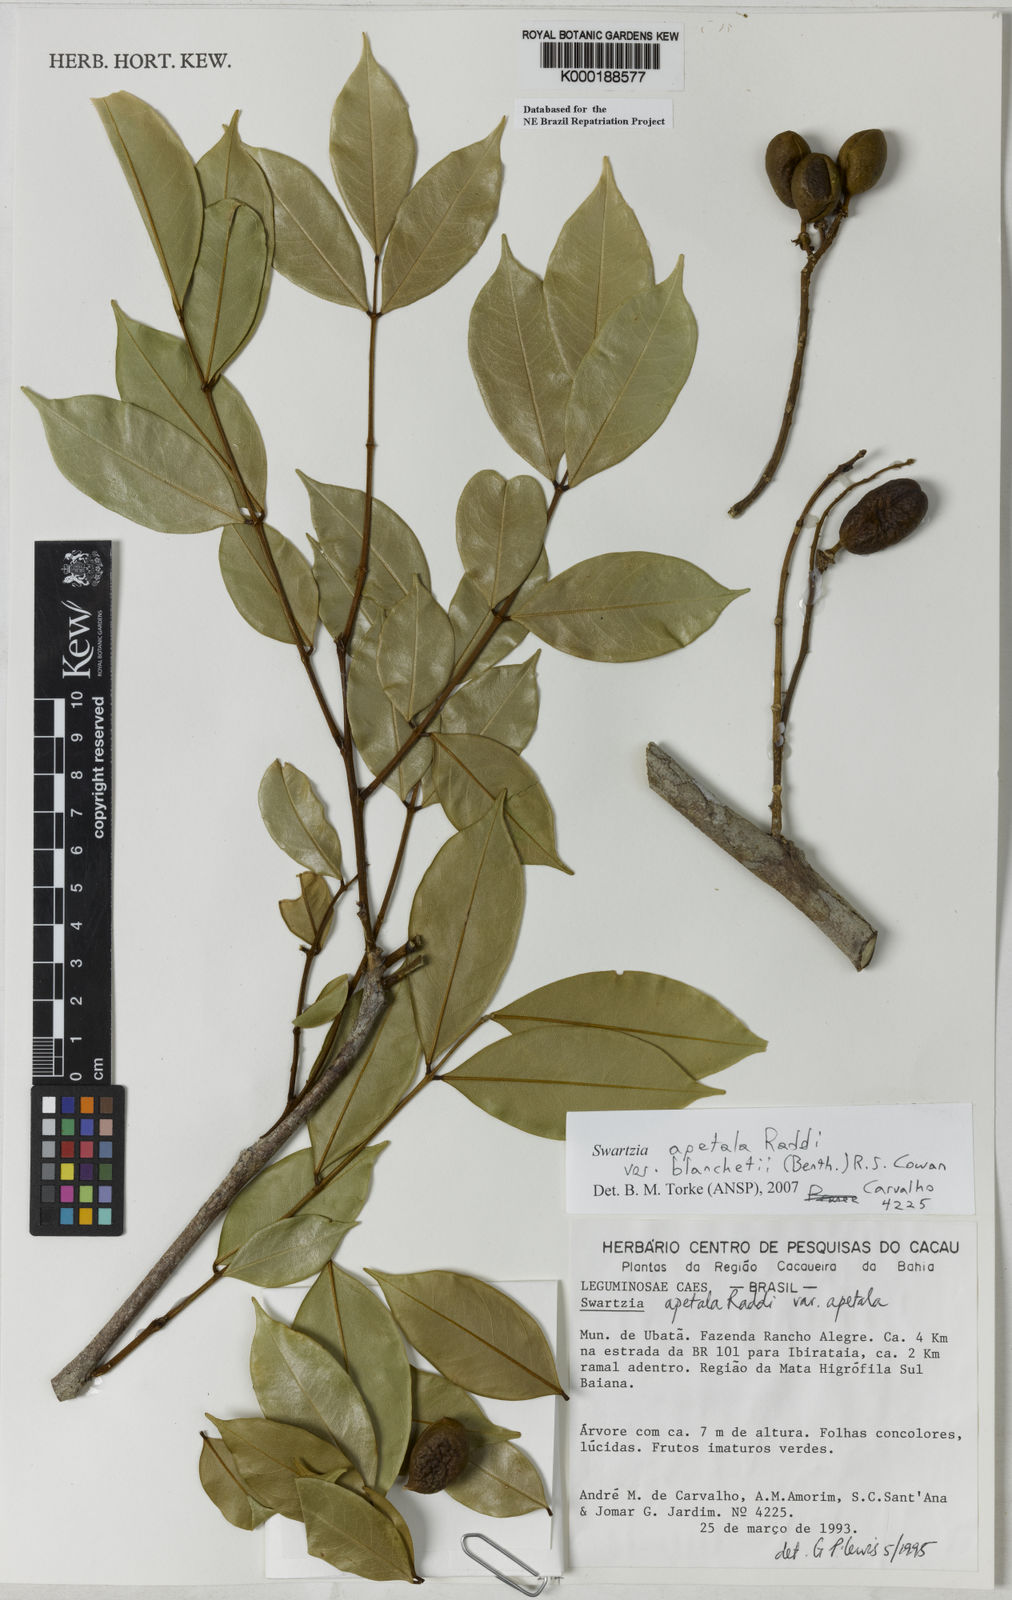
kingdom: Plantae
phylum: Tracheophyta
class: Magnoliopsida
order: Fabales
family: Fabaceae
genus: Swartzia
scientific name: Swartzia apetala
